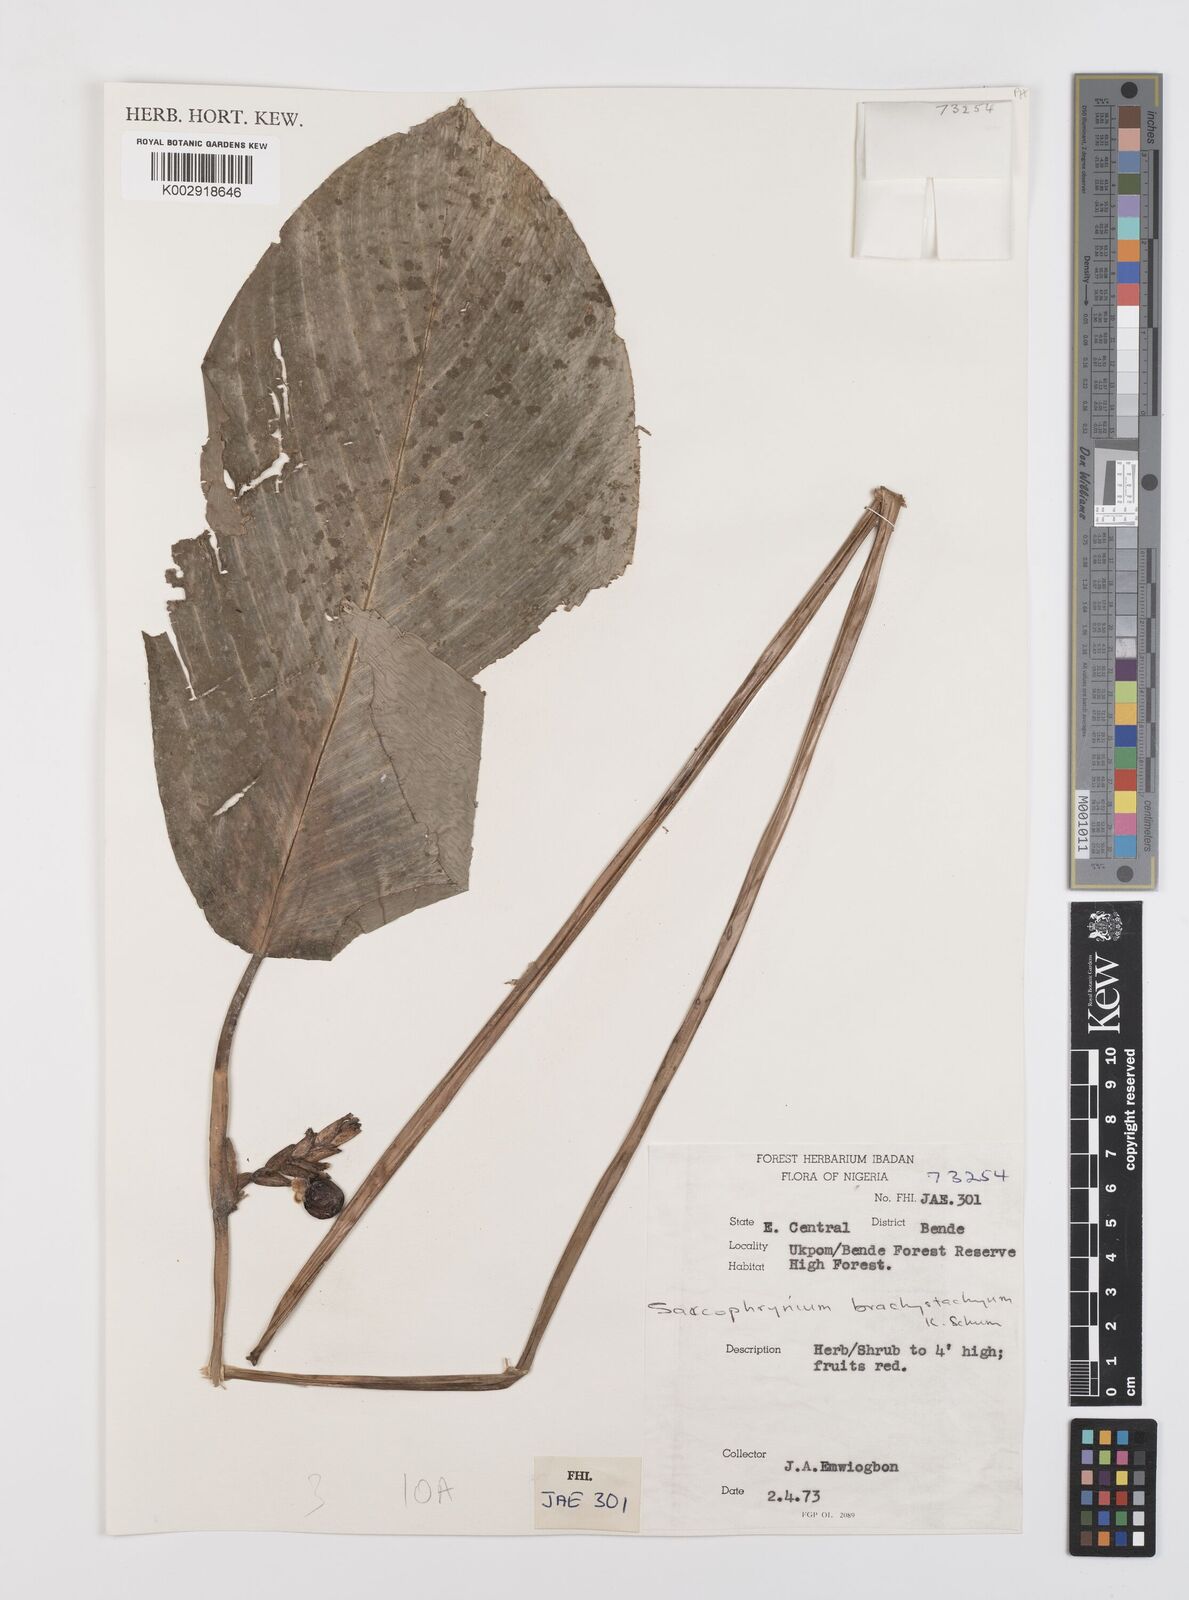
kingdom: Plantae
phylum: Tracheophyta
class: Liliopsida
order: Zingiberales
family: Marantaceae
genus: Sarcophrynium
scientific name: Sarcophrynium brachystachyum
